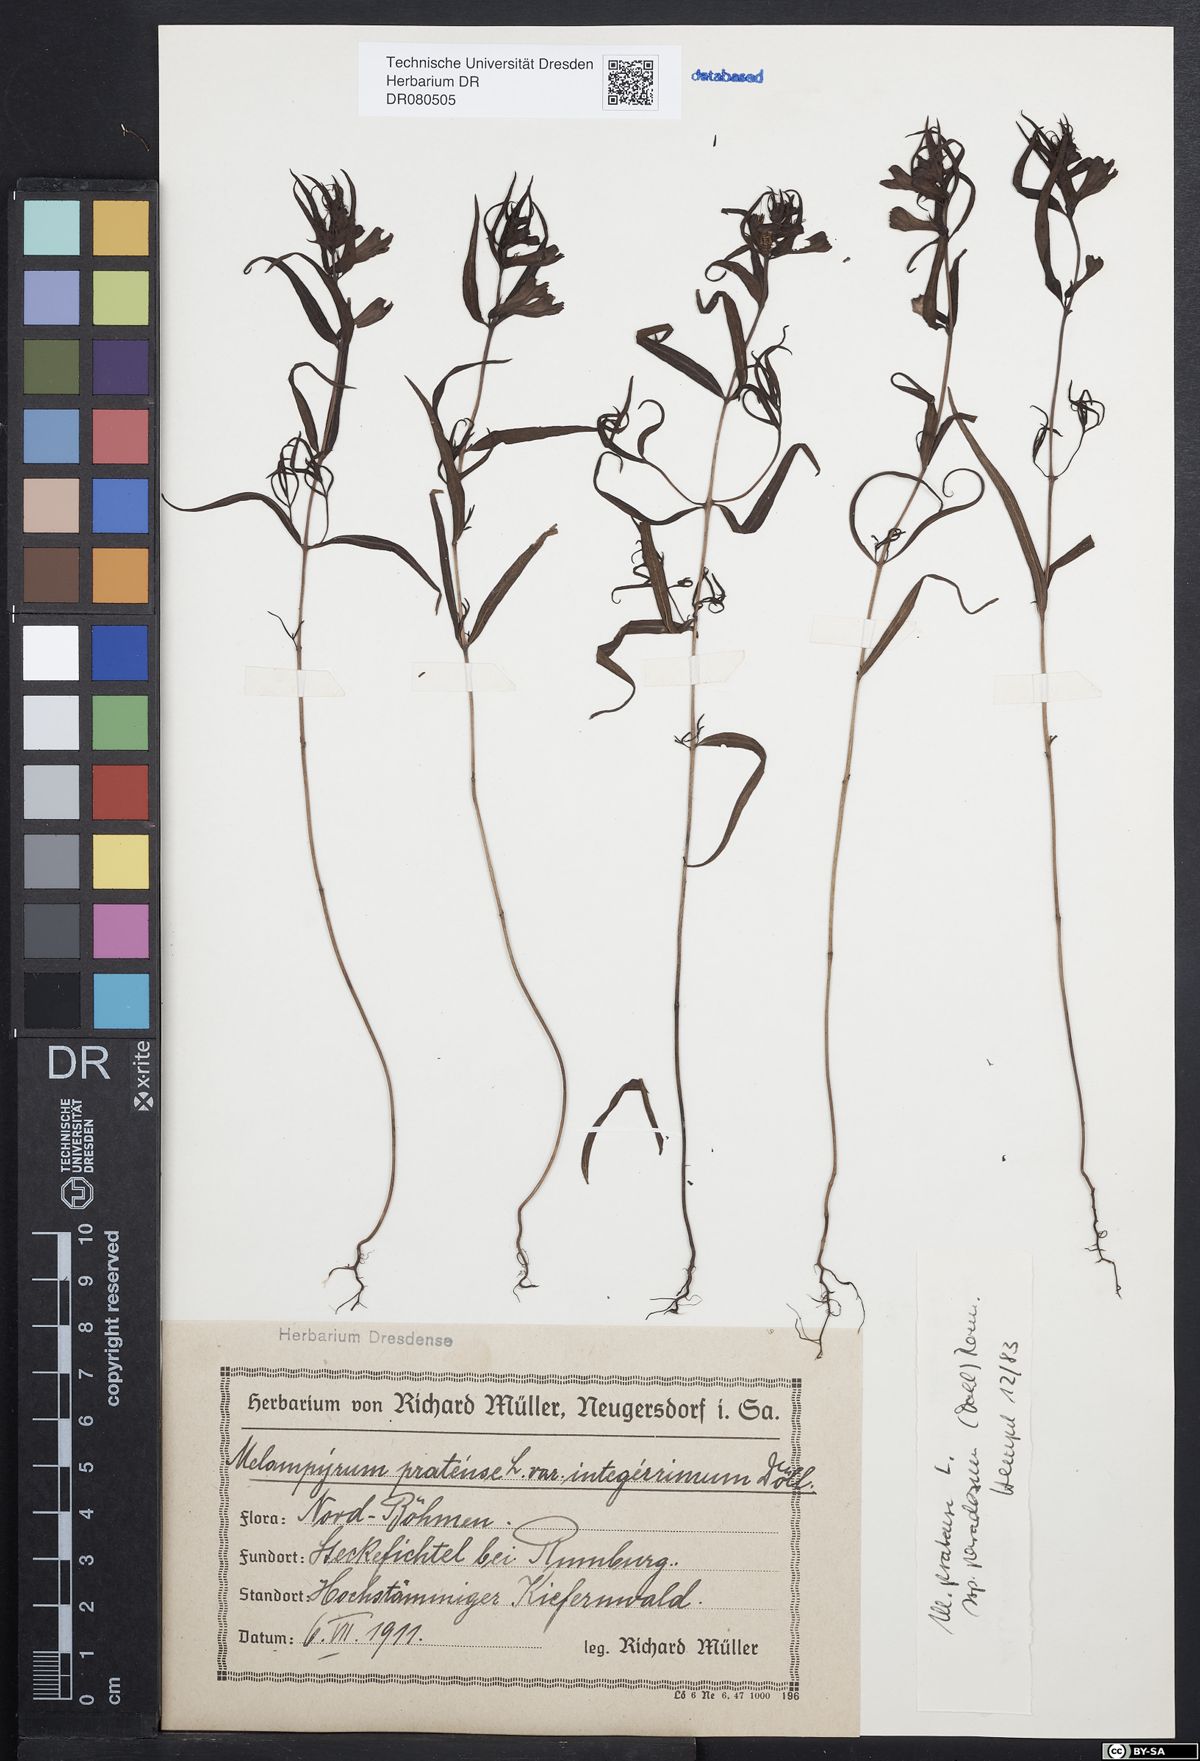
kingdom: Plantae
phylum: Tracheophyta
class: Magnoliopsida
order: Lamiales
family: Orobanchaceae
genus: Melampyrum
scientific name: Melampyrum pratense
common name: Common cow-wheat
